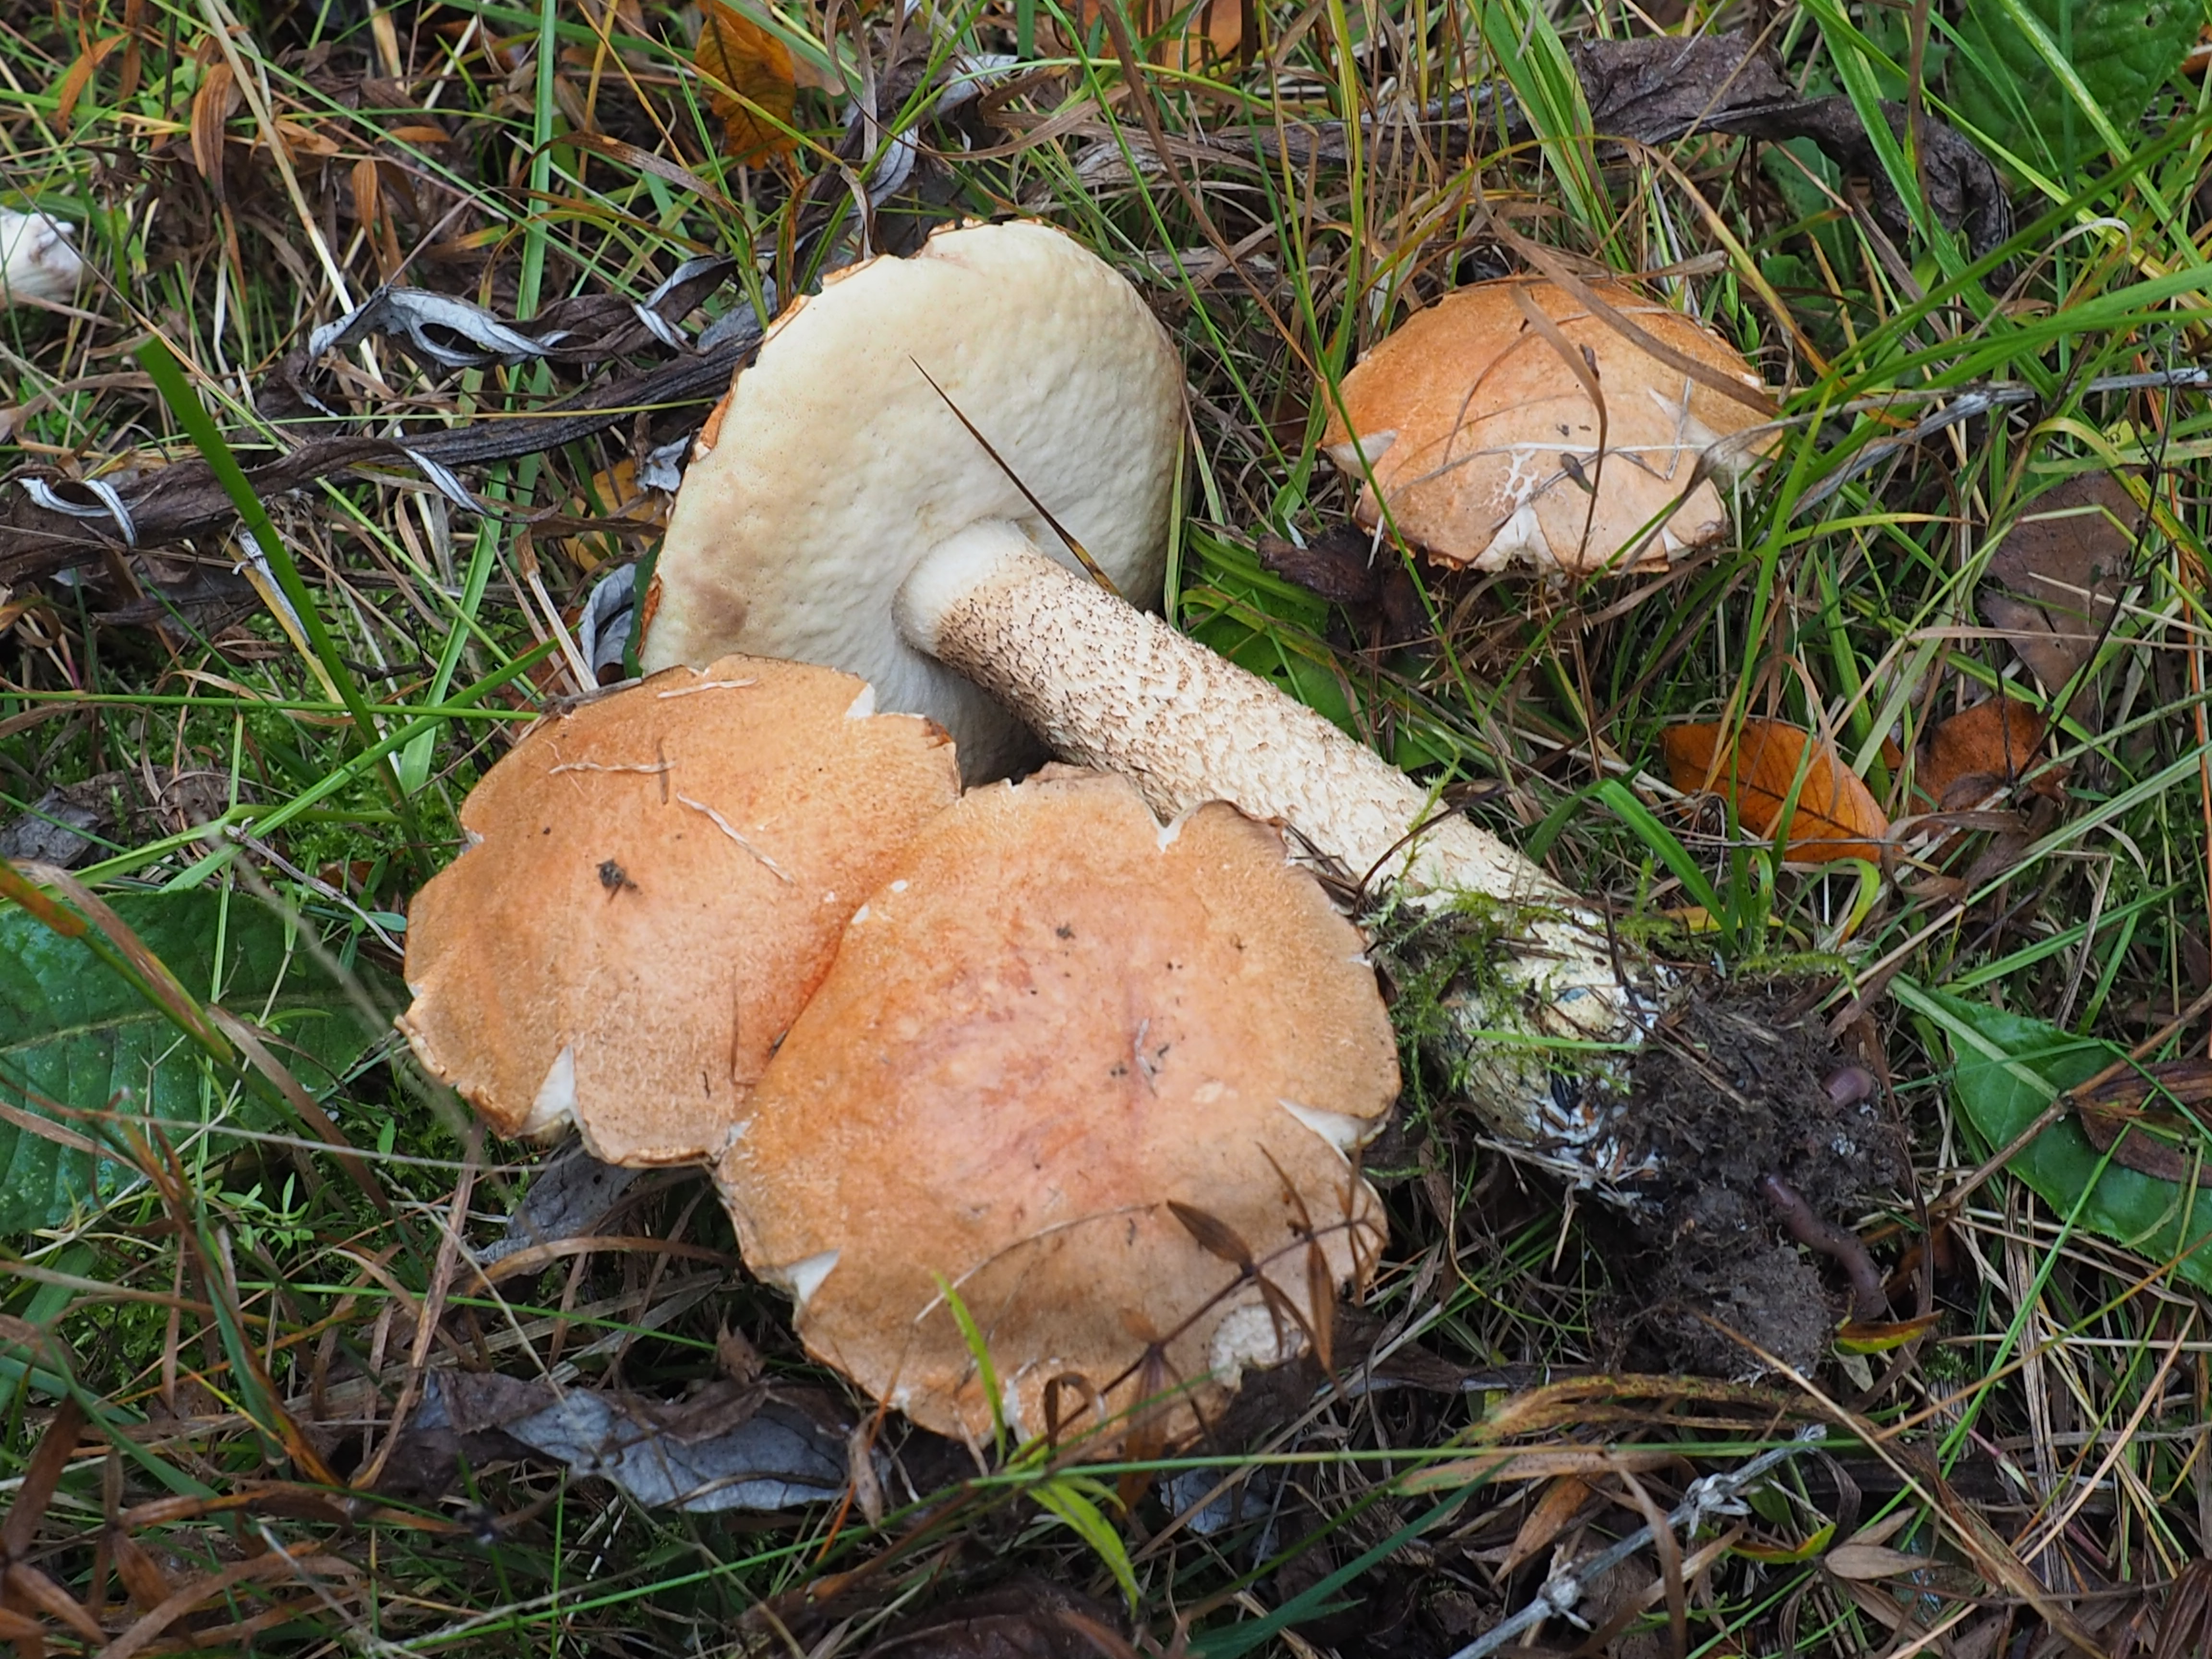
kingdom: Fungi
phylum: Basidiomycota
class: Agaricomycetes
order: Boletales
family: Boletaceae
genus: Leccinum
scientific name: Leccinum albostipitatum
